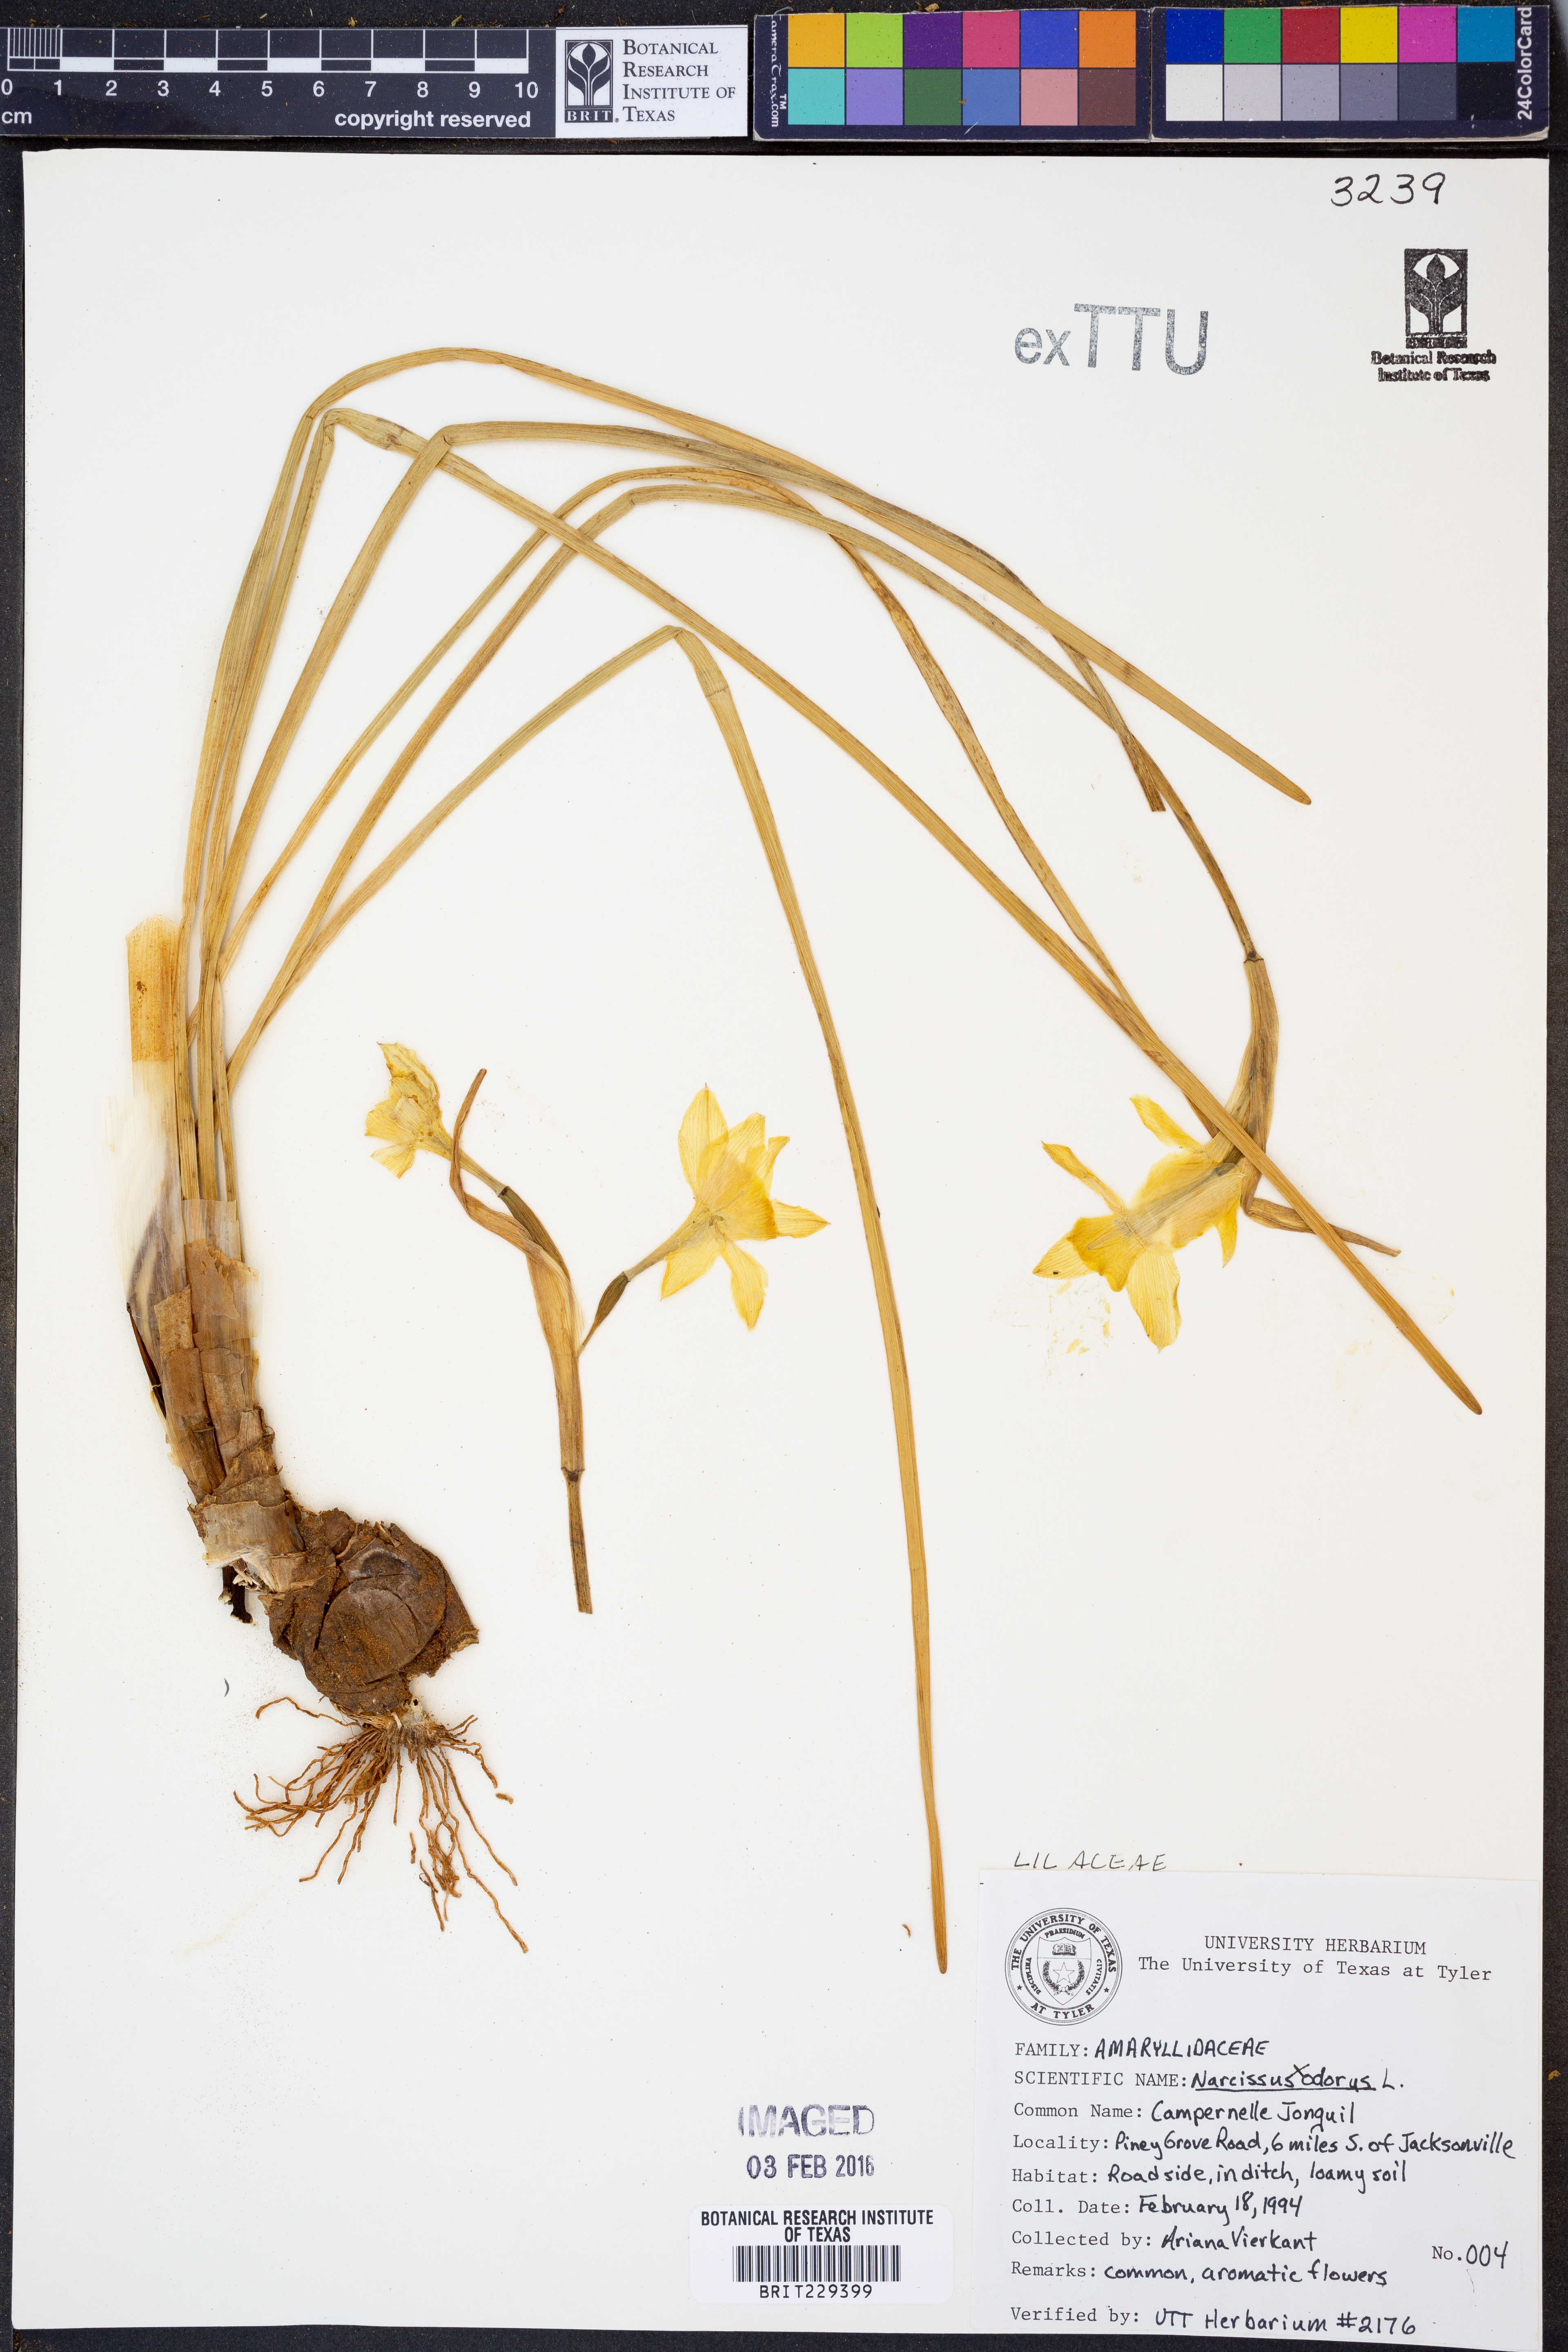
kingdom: Plantae
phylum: Tracheophyta
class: Liliopsida
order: Asparagales
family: Amaryllidaceae
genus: Narcissus
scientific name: Narcissus
